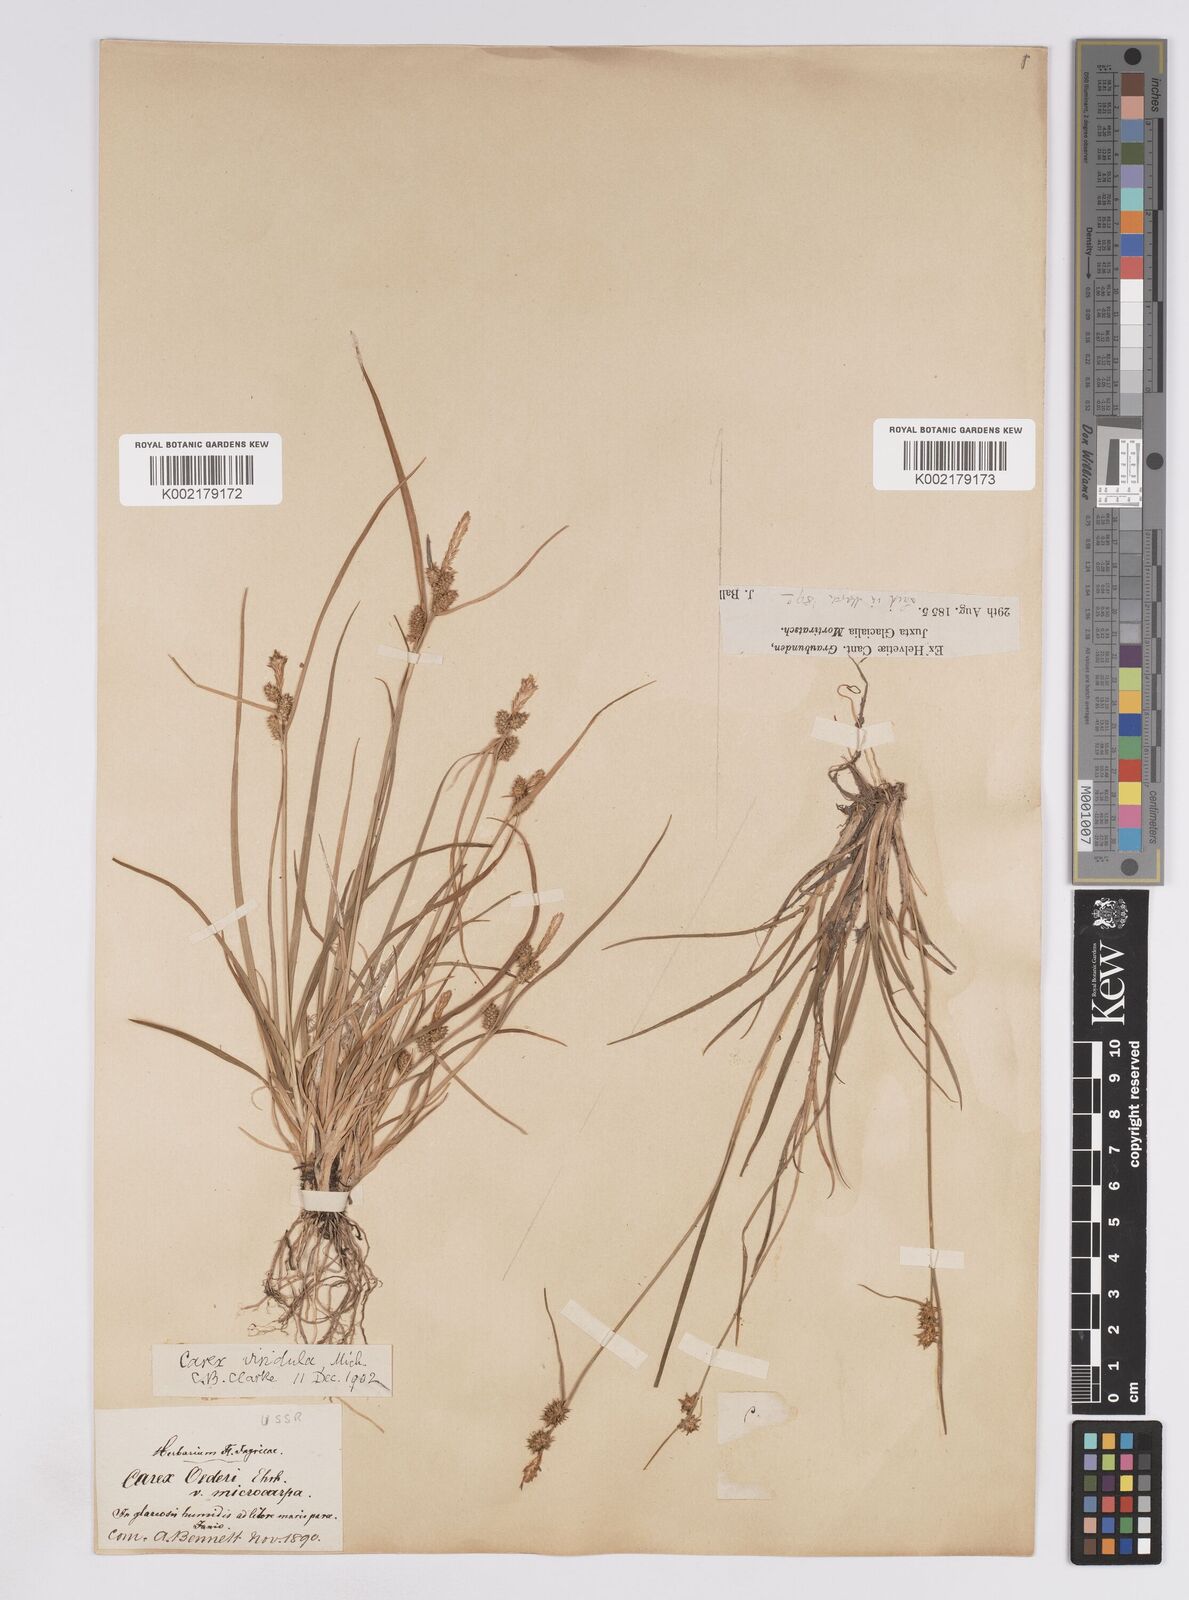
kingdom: Plantae
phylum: Tracheophyta
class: Liliopsida
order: Poales
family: Cyperaceae
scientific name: Cyperaceae
